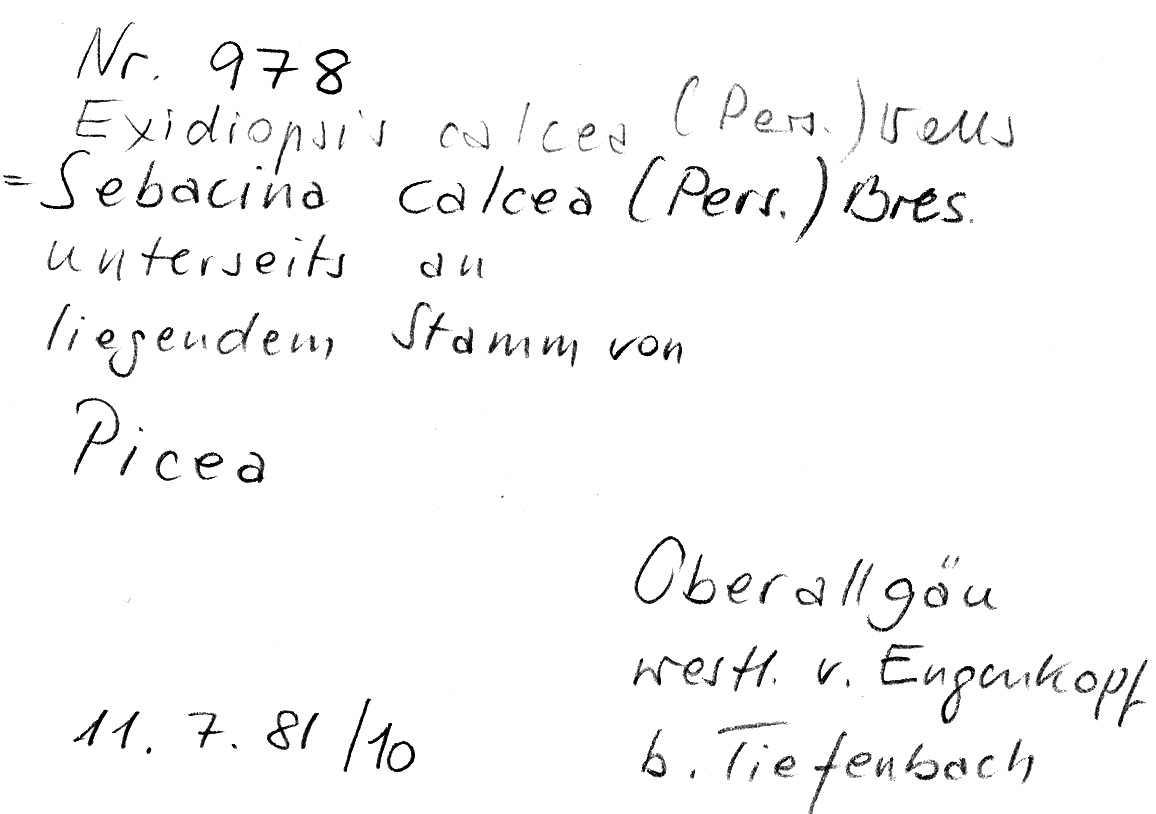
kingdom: Plantae
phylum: Tracheophyta
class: Pinopsida
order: Pinales
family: Pinaceae
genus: Picea
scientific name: Picea
